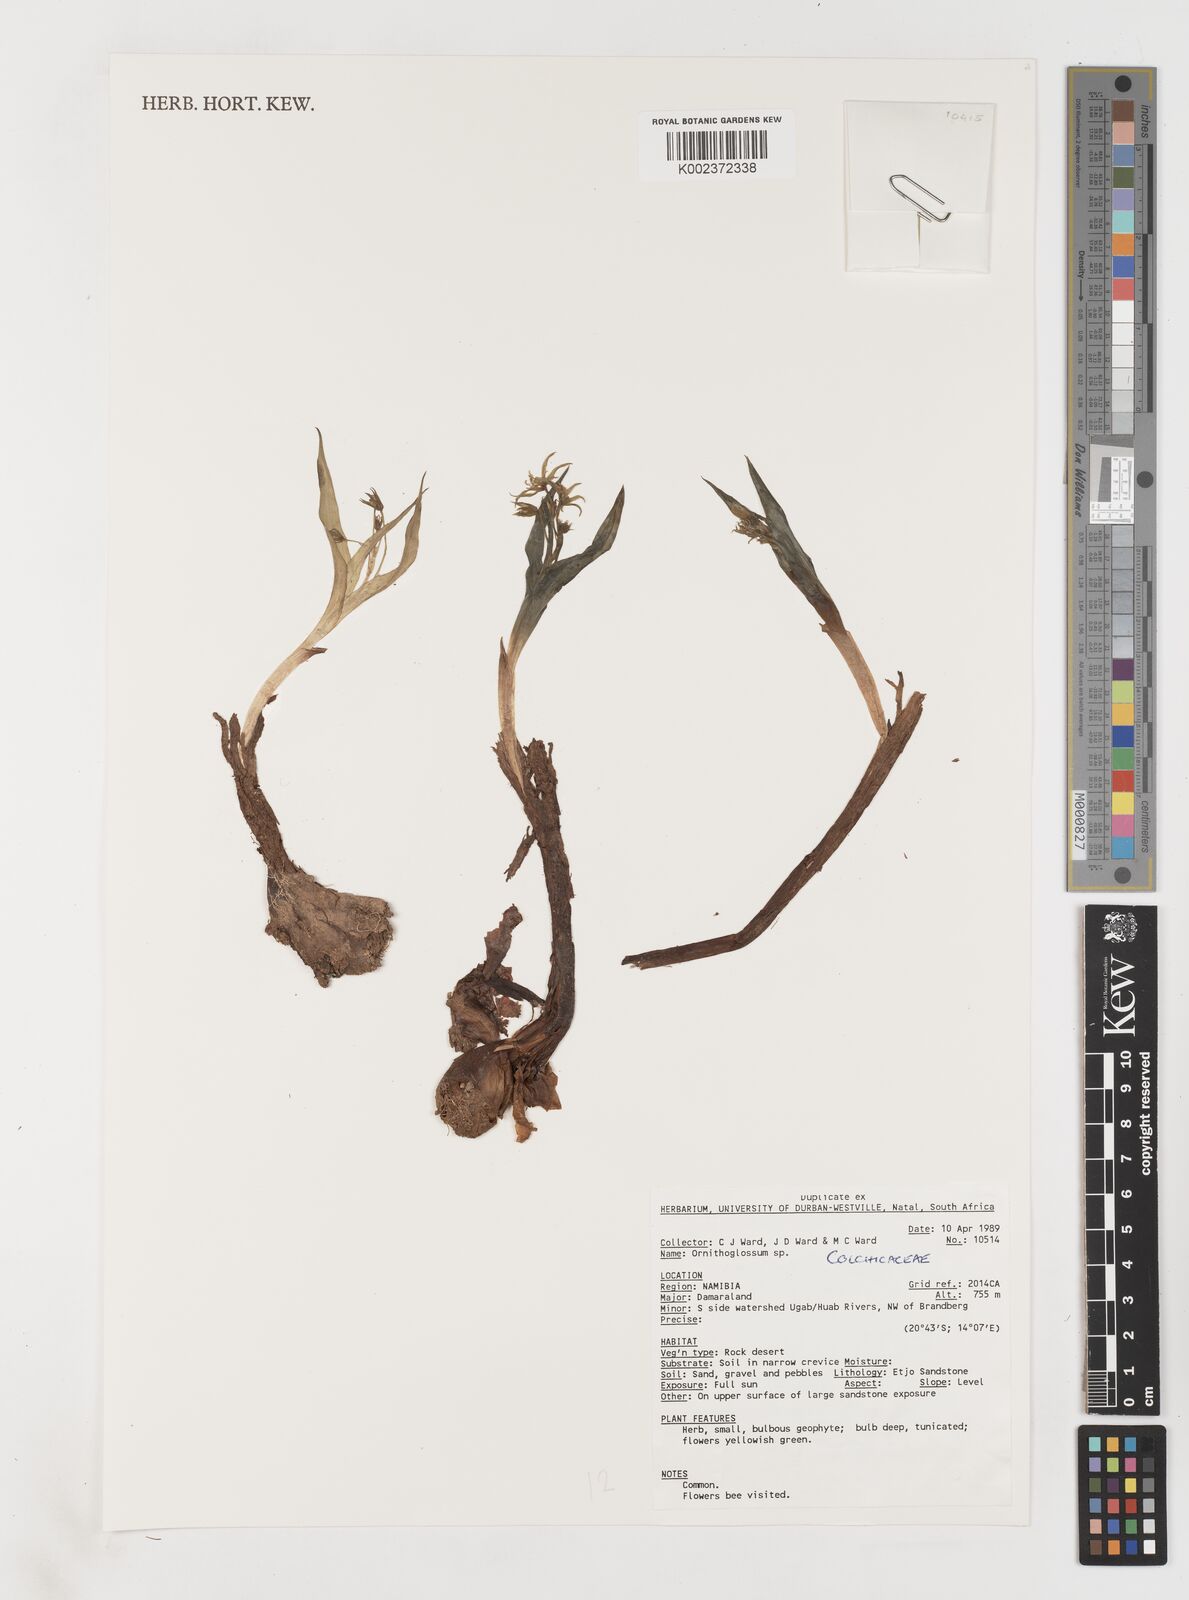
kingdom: Plantae
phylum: Tracheophyta
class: Liliopsida
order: Liliales
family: Colchicaceae
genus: Ornithoglossum
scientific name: Ornithoglossum
